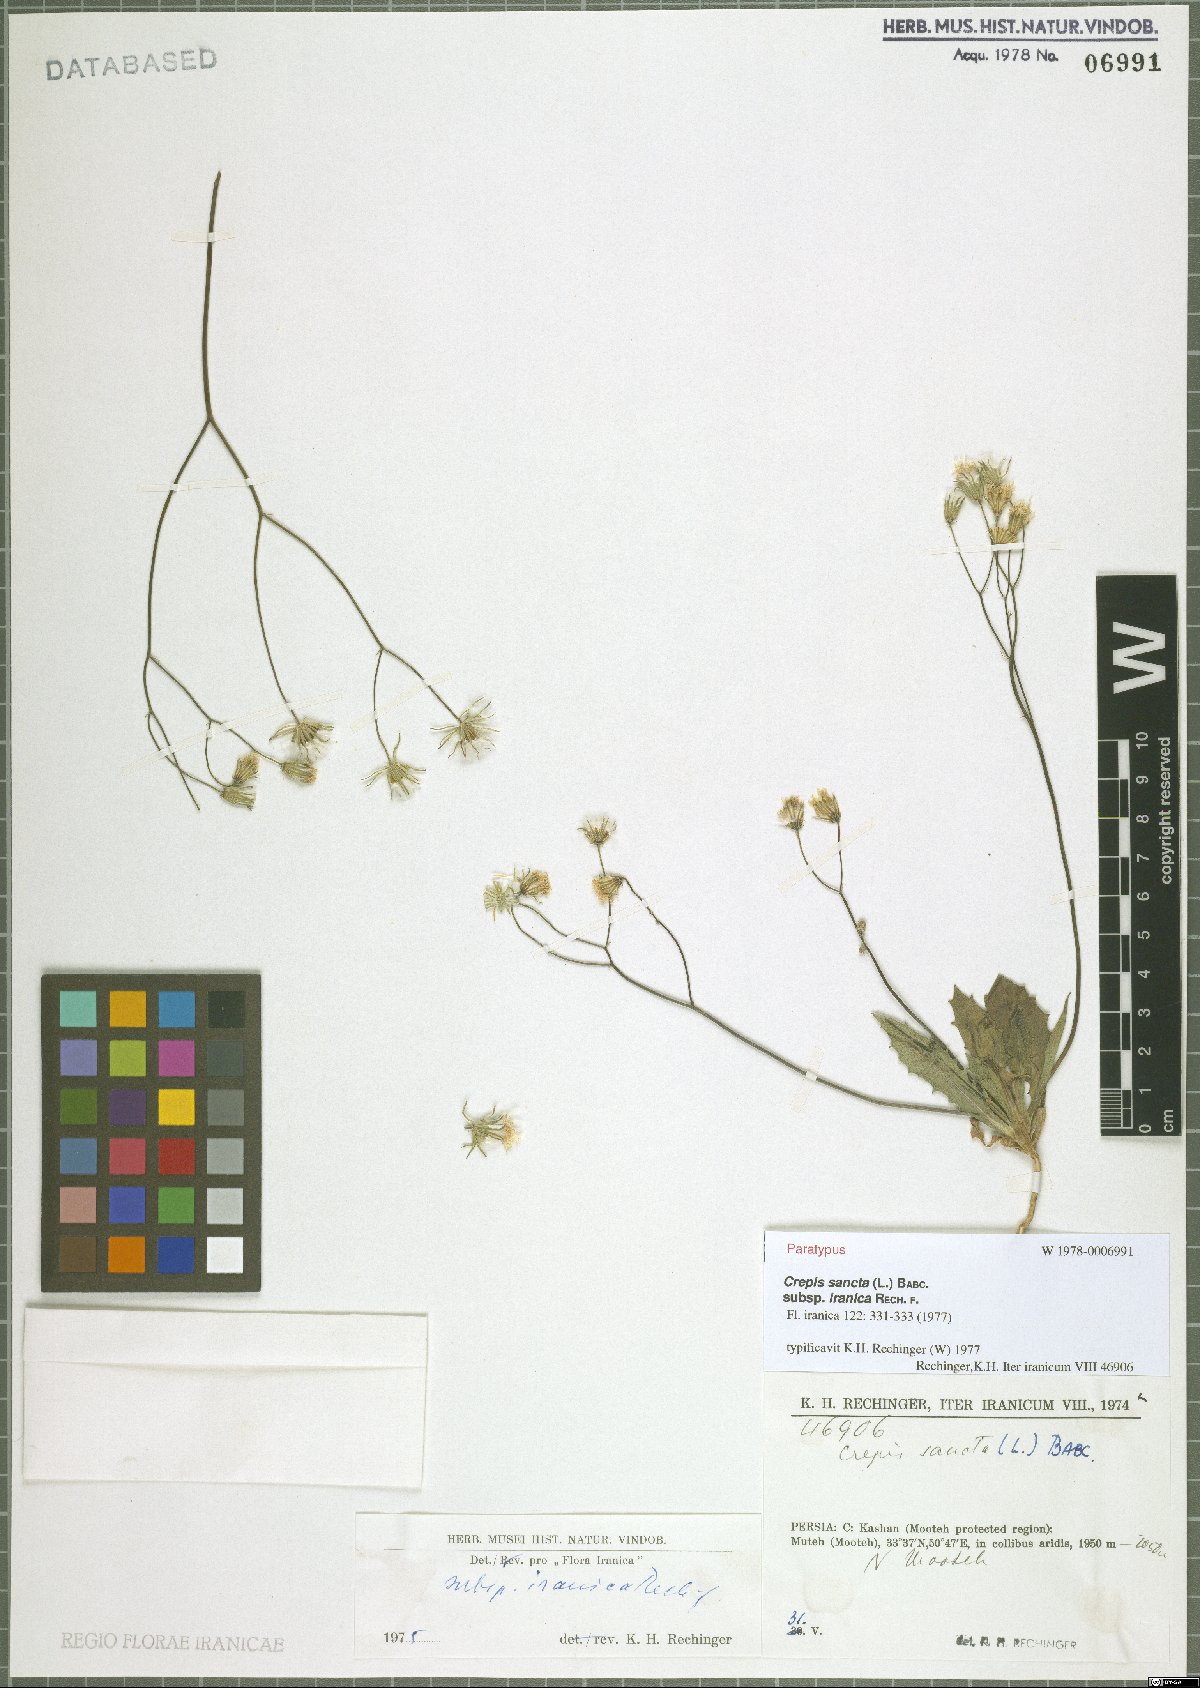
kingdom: Plantae
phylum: Tracheophyta
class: Magnoliopsida
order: Asterales
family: Asteraceae
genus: Crepis
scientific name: Crepis sancta
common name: Hawk's-beard
